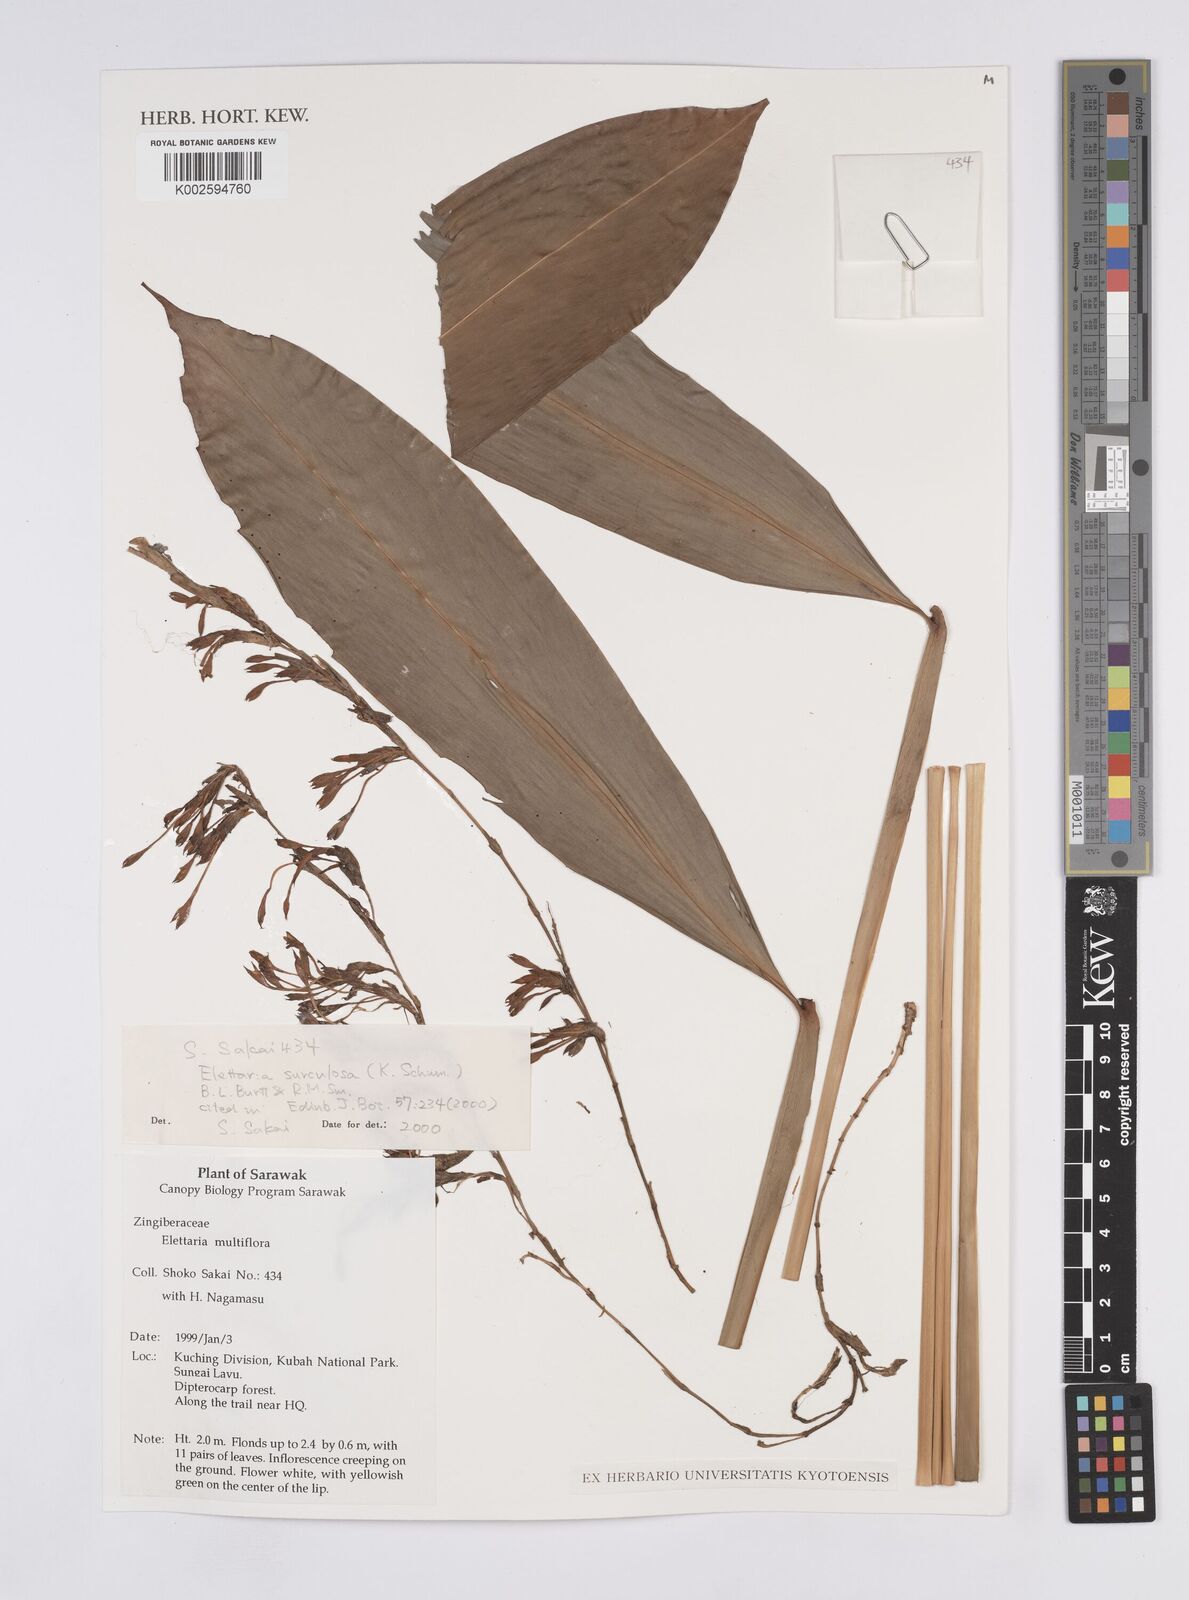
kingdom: Plantae
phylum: Tracheophyta
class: Liliopsida
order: Zingiberales
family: Zingiberaceae
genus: Sulettaria
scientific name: Sulettaria surculosa
